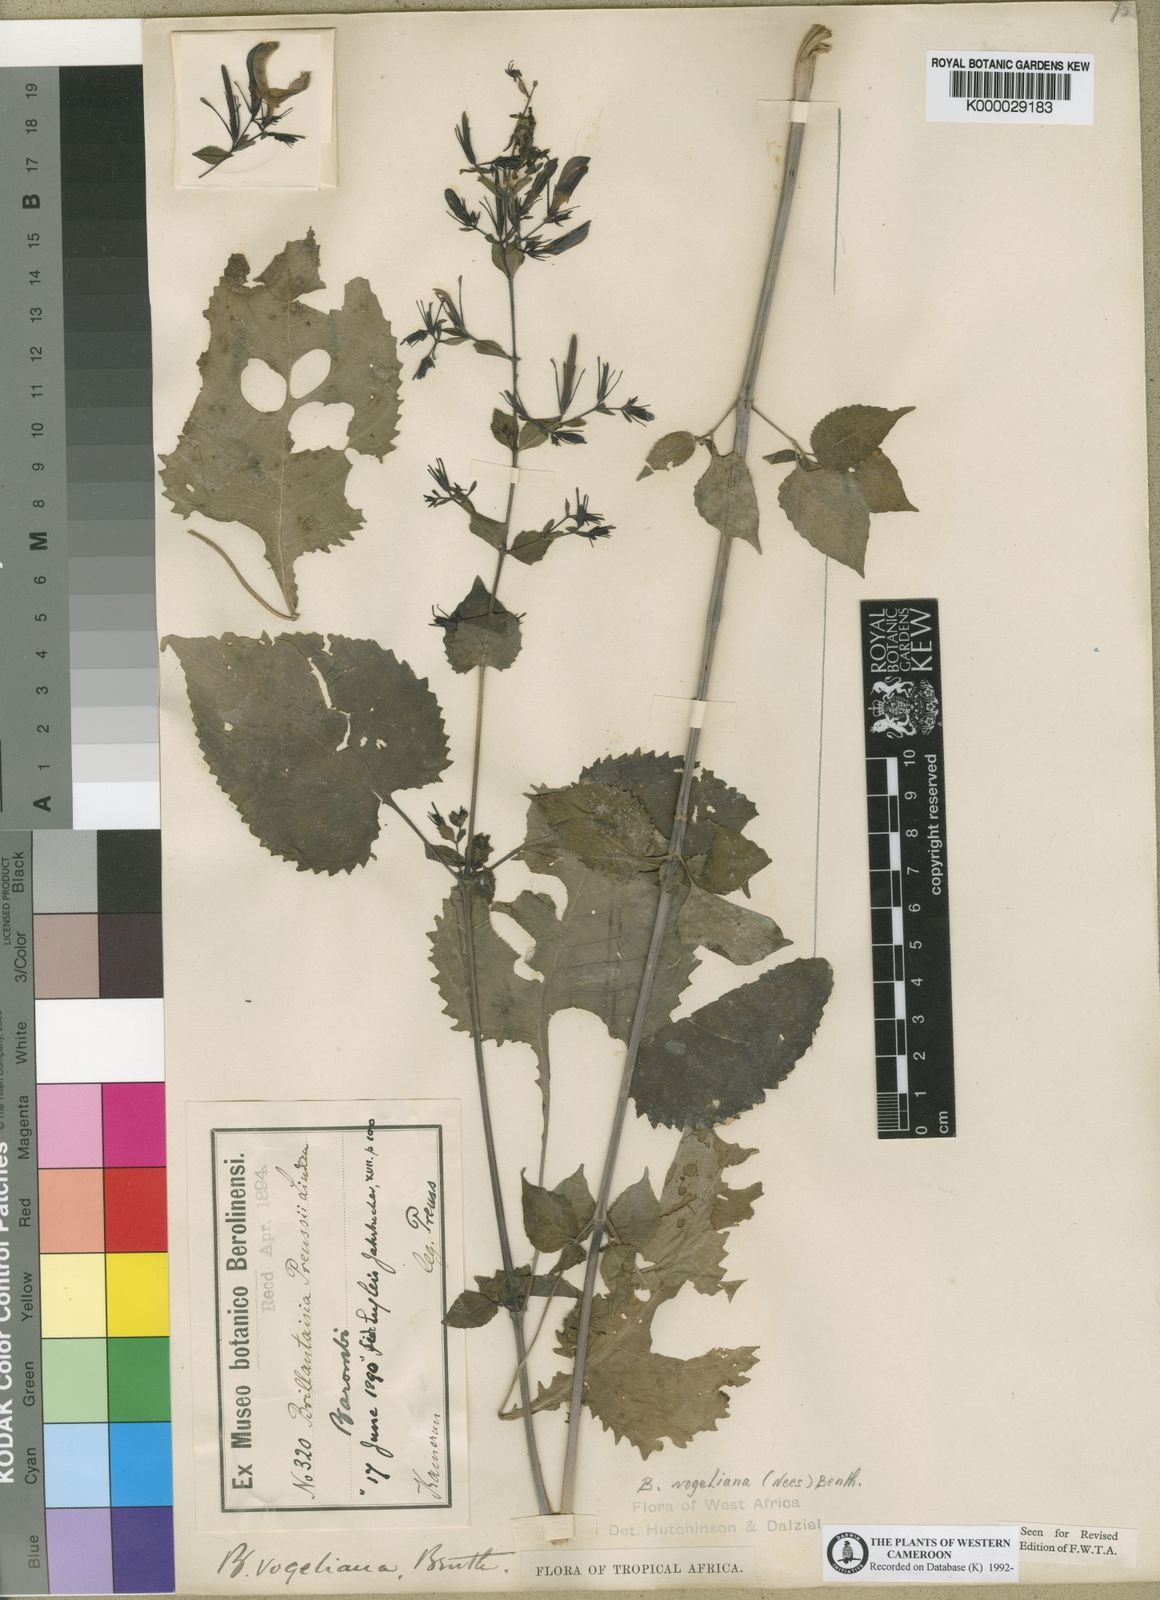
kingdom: Plantae
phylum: Tracheophyta
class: Magnoliopsida
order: Lamiales
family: Acanthaceae
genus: Brillantaisia
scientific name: Brillantaisia vogeliana
